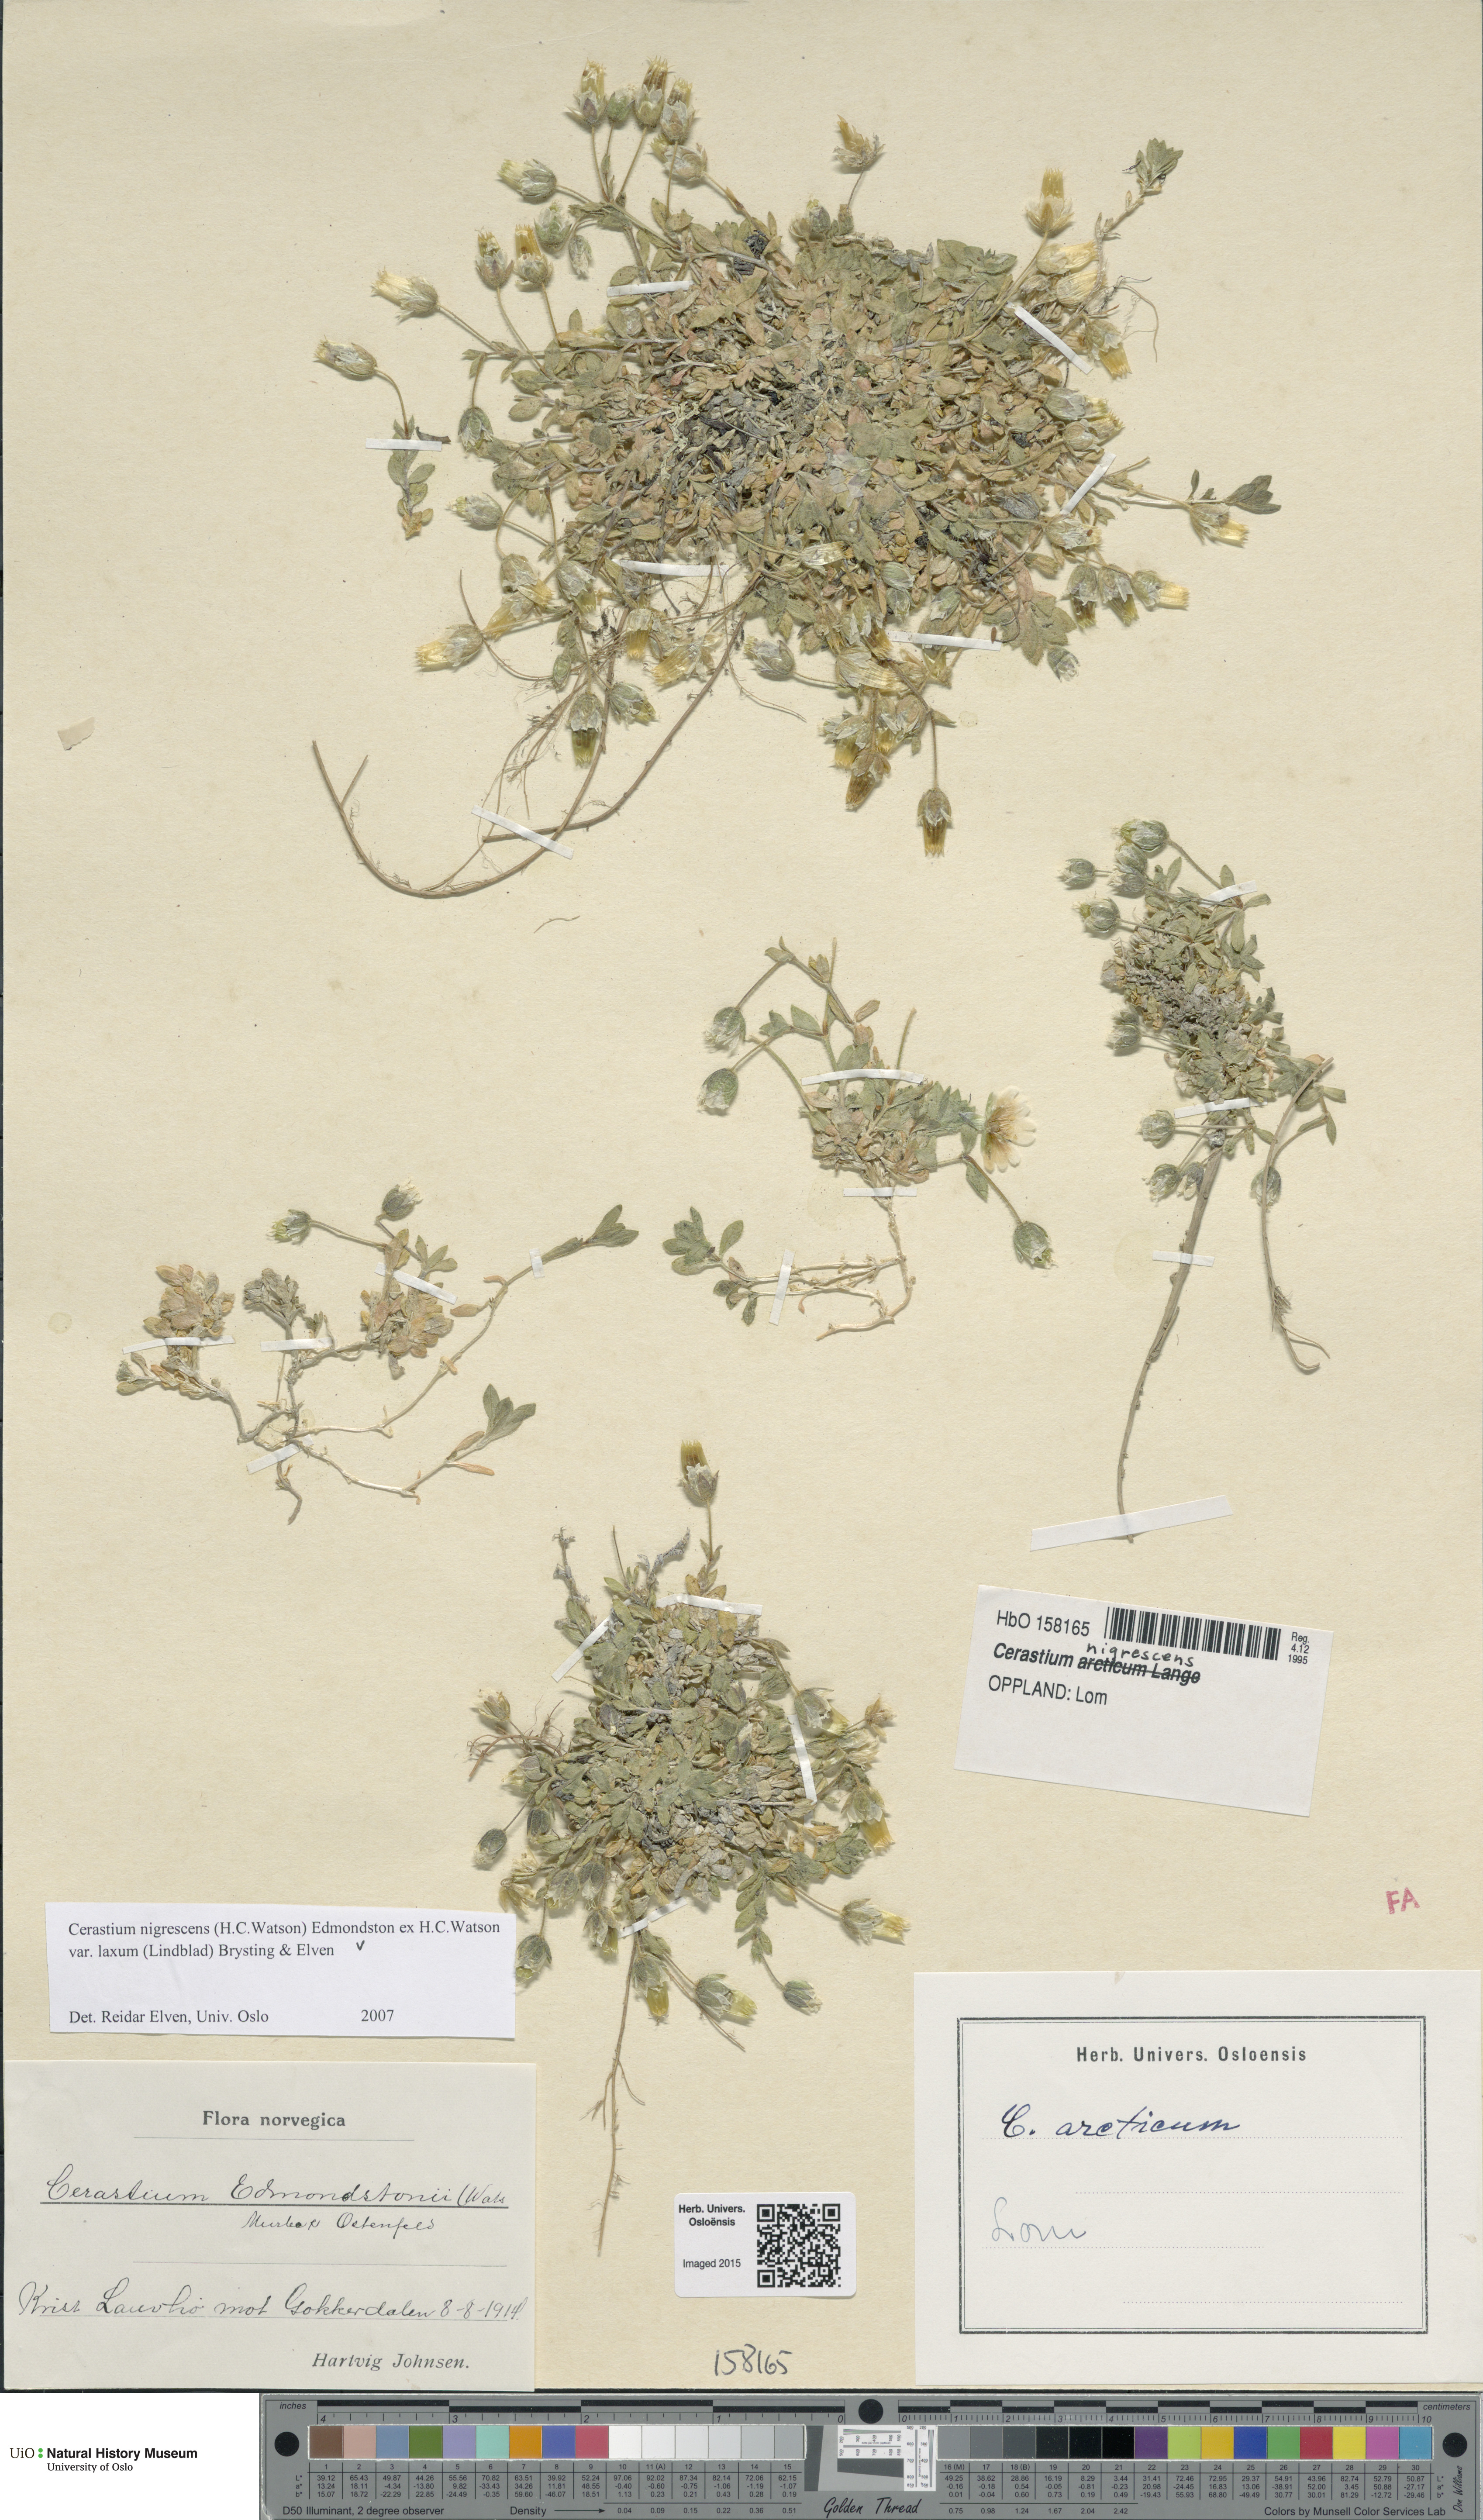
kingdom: Plantae
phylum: Tracheophyta
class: Magnoliopsida
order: Caryophyllales
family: Caryophyllaceae
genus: Cerastium
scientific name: Cerastium nigrescens
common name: Shetland mouse-ear
